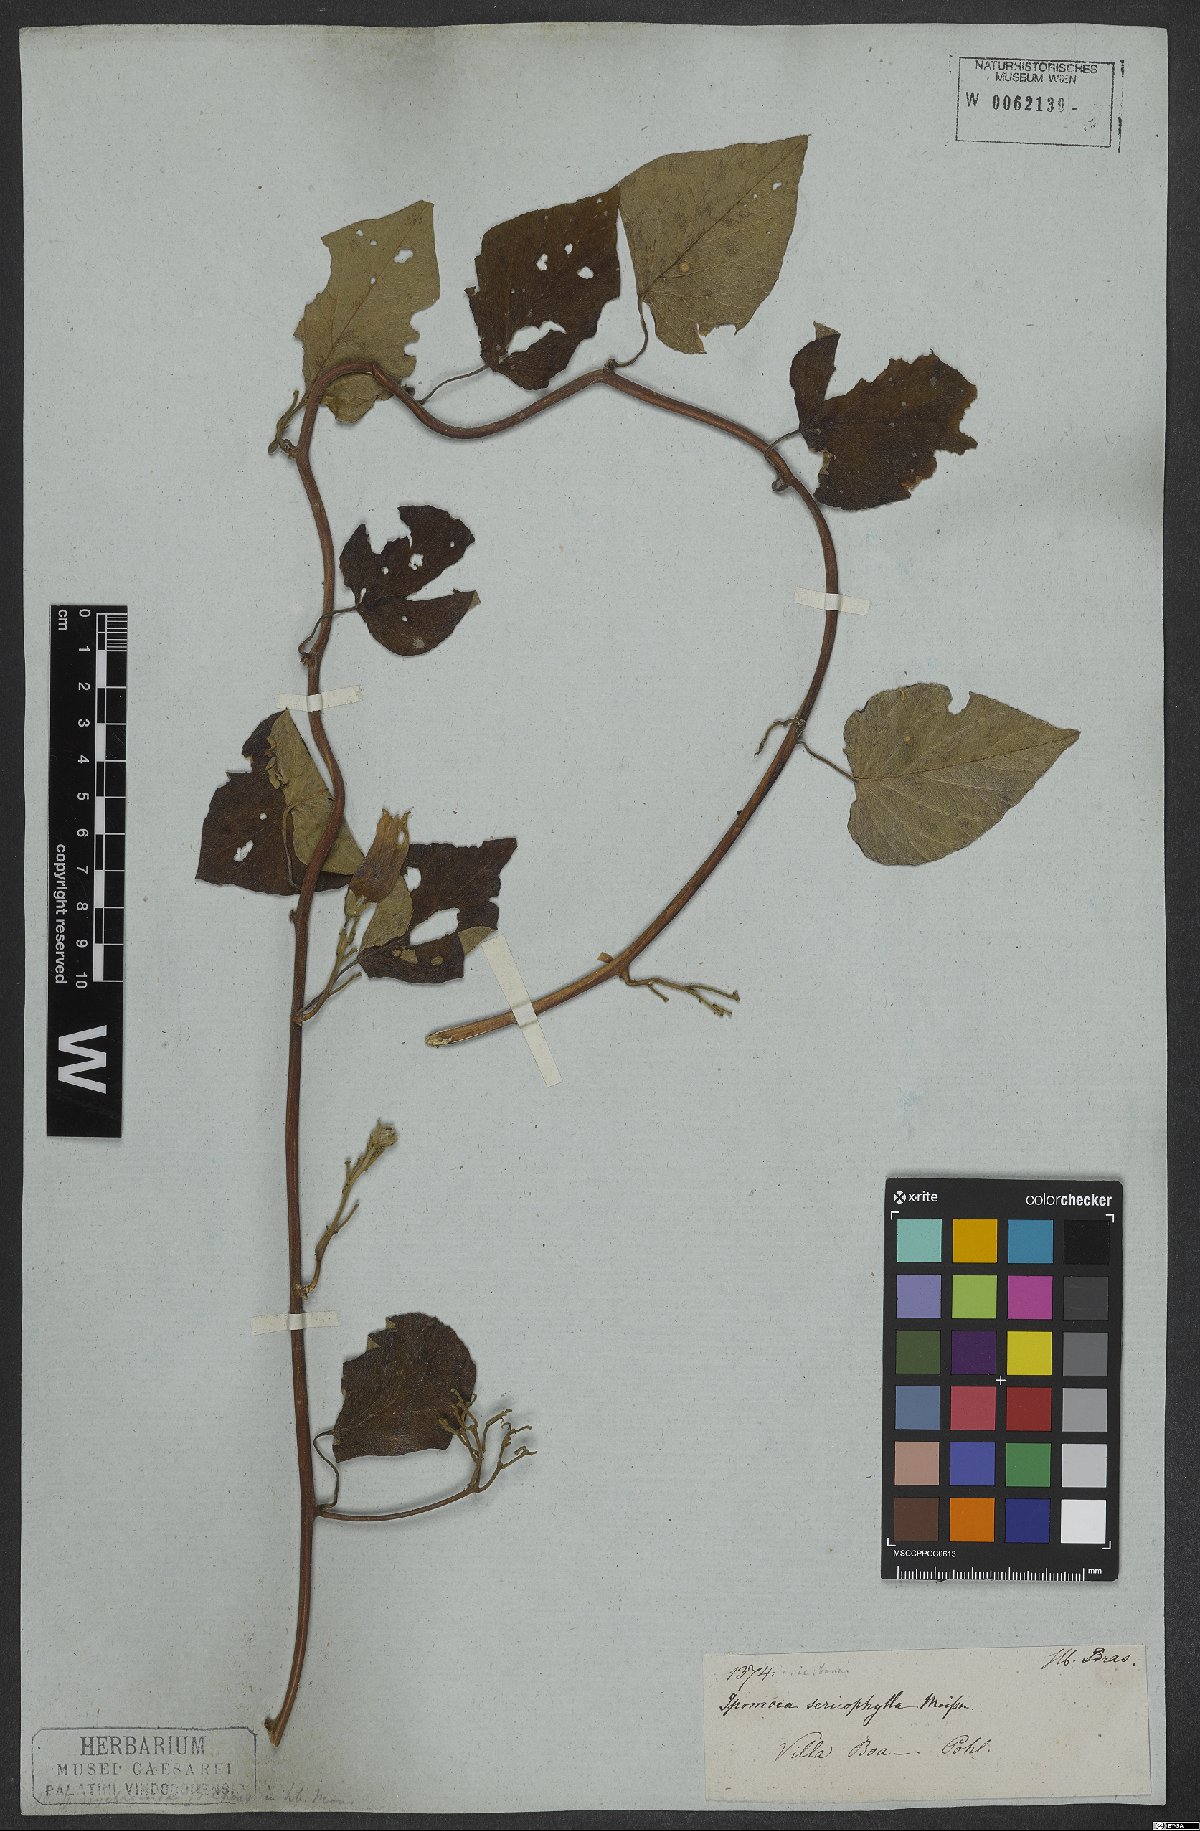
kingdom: Plantae
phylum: Tracheophyta
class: Magnoliopsida
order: Solanales
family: Convolvulaceae
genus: Ipomoea
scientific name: Ipomoea sericophylla
